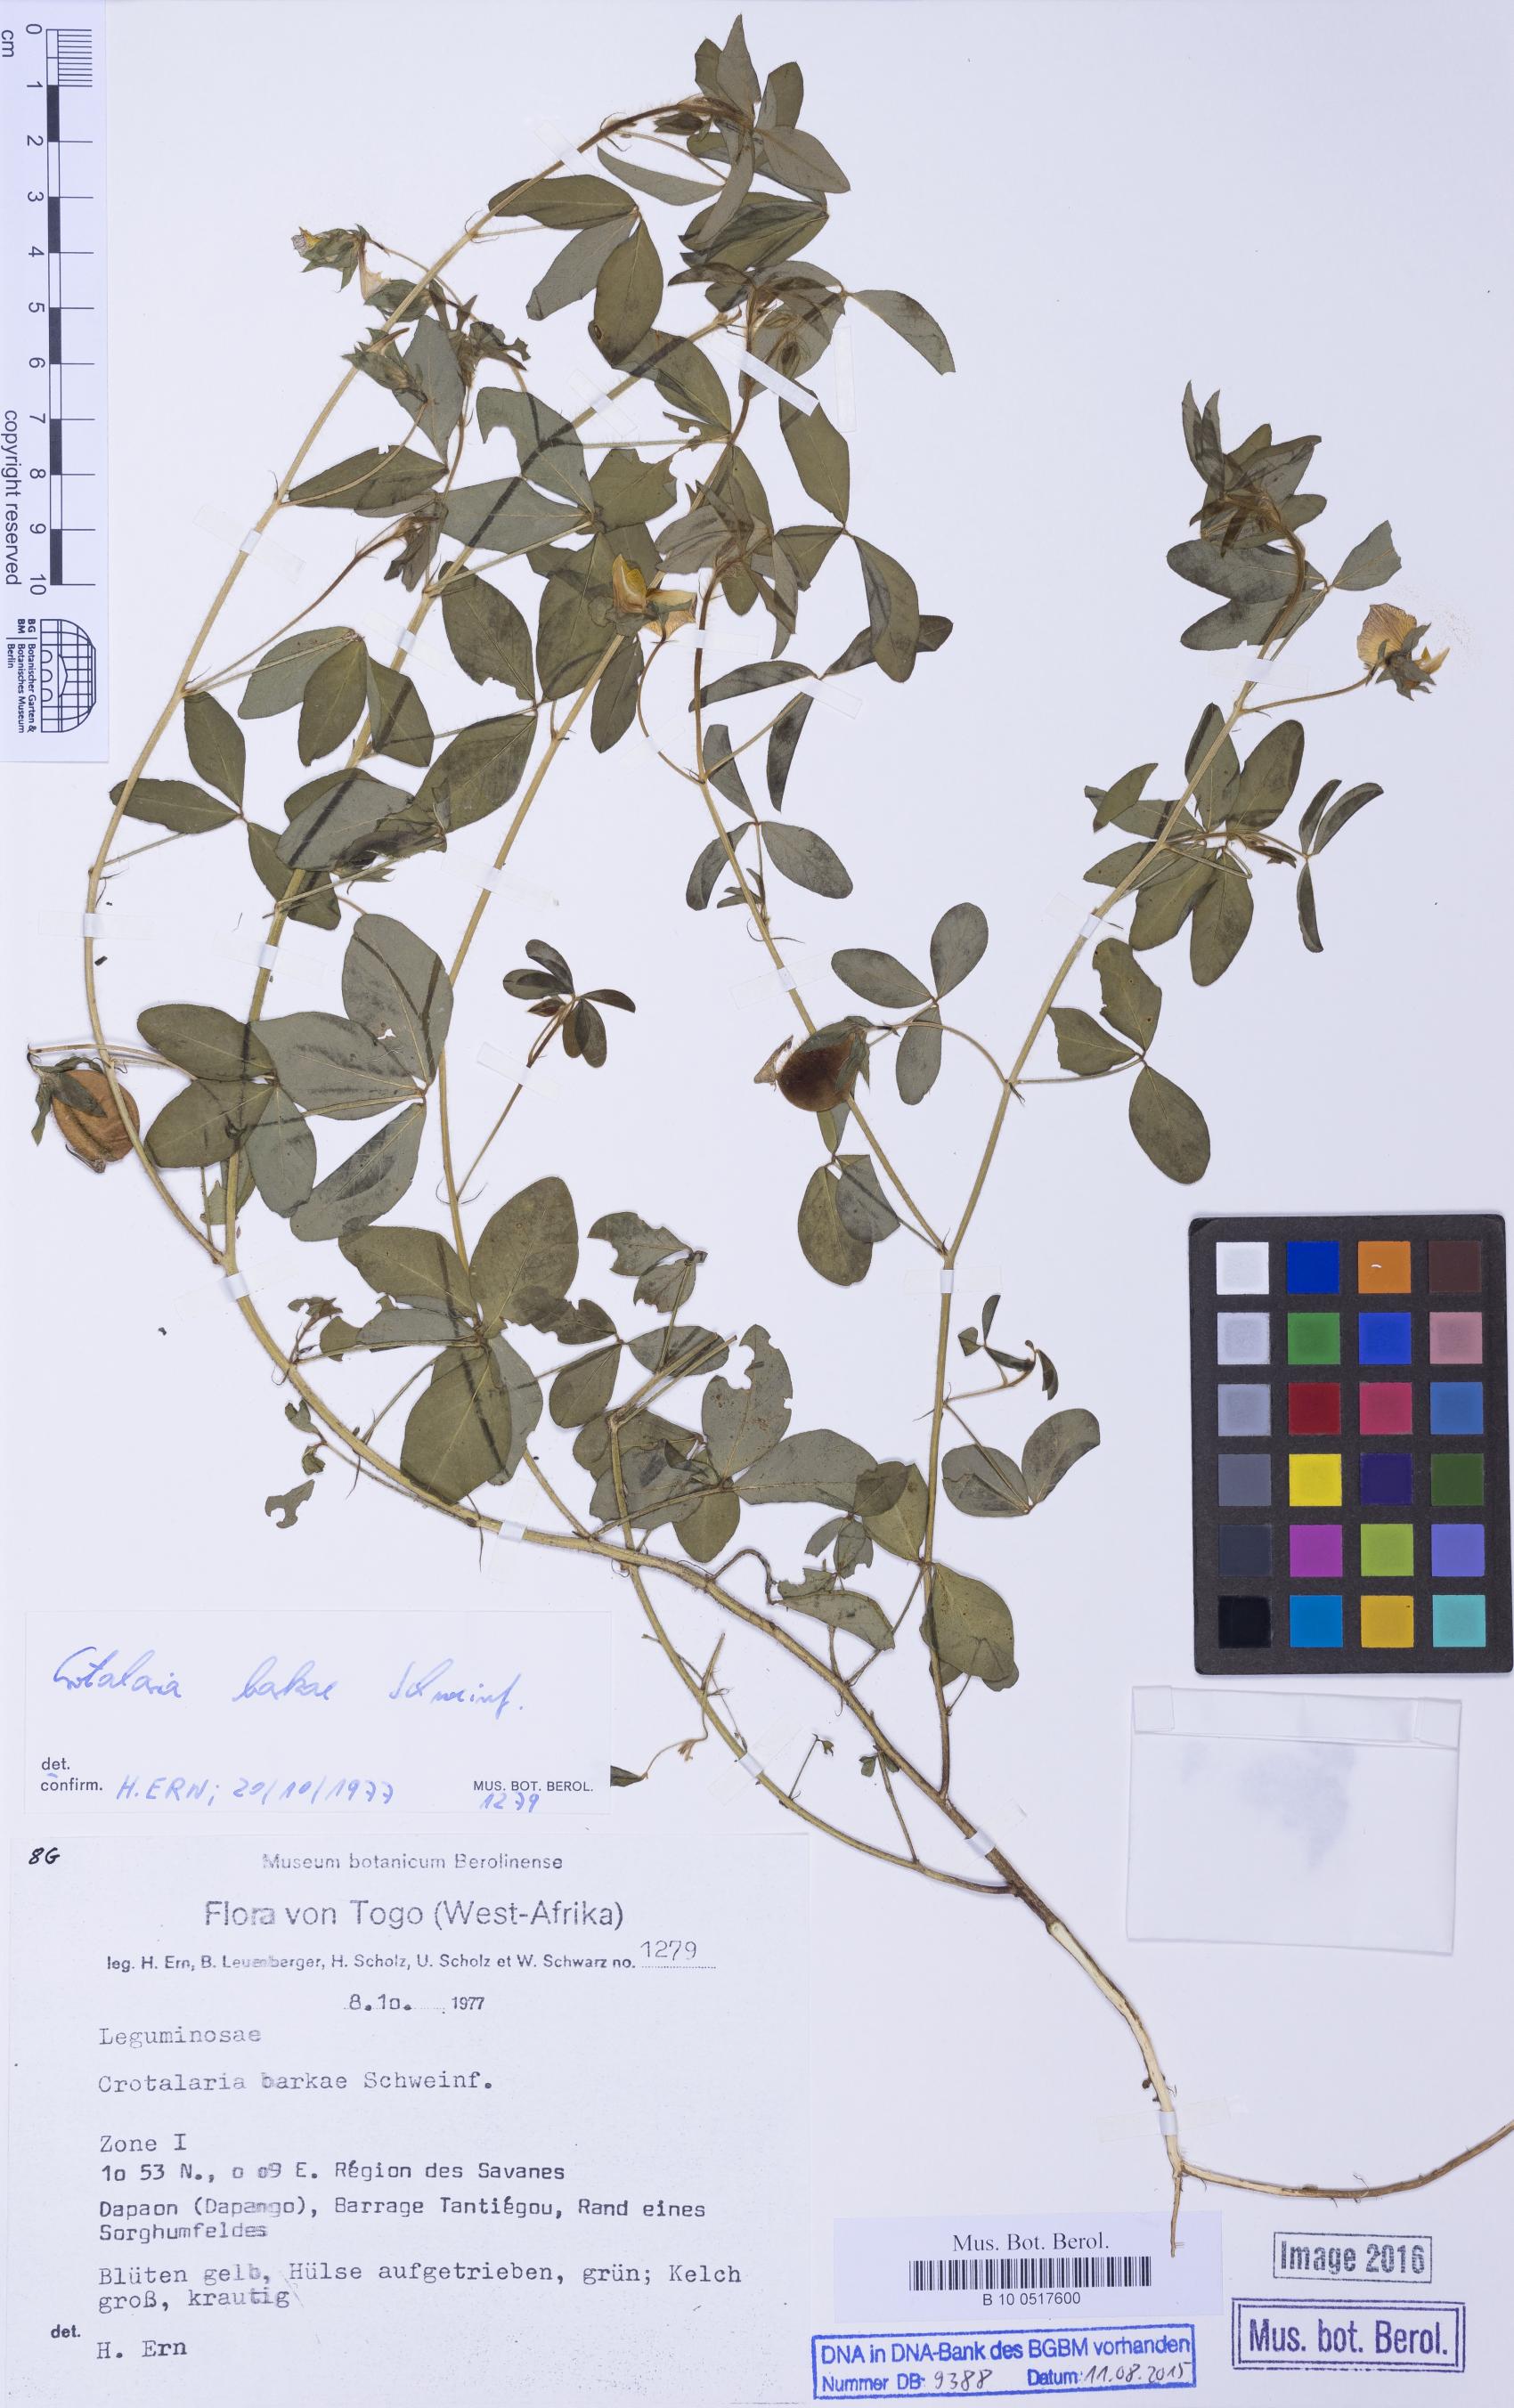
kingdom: Plantae
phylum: Tracheophyta
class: Magnoliopsida
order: Fabales
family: Fabaceae
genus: Crotalaria
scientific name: Crotalaria barkae
